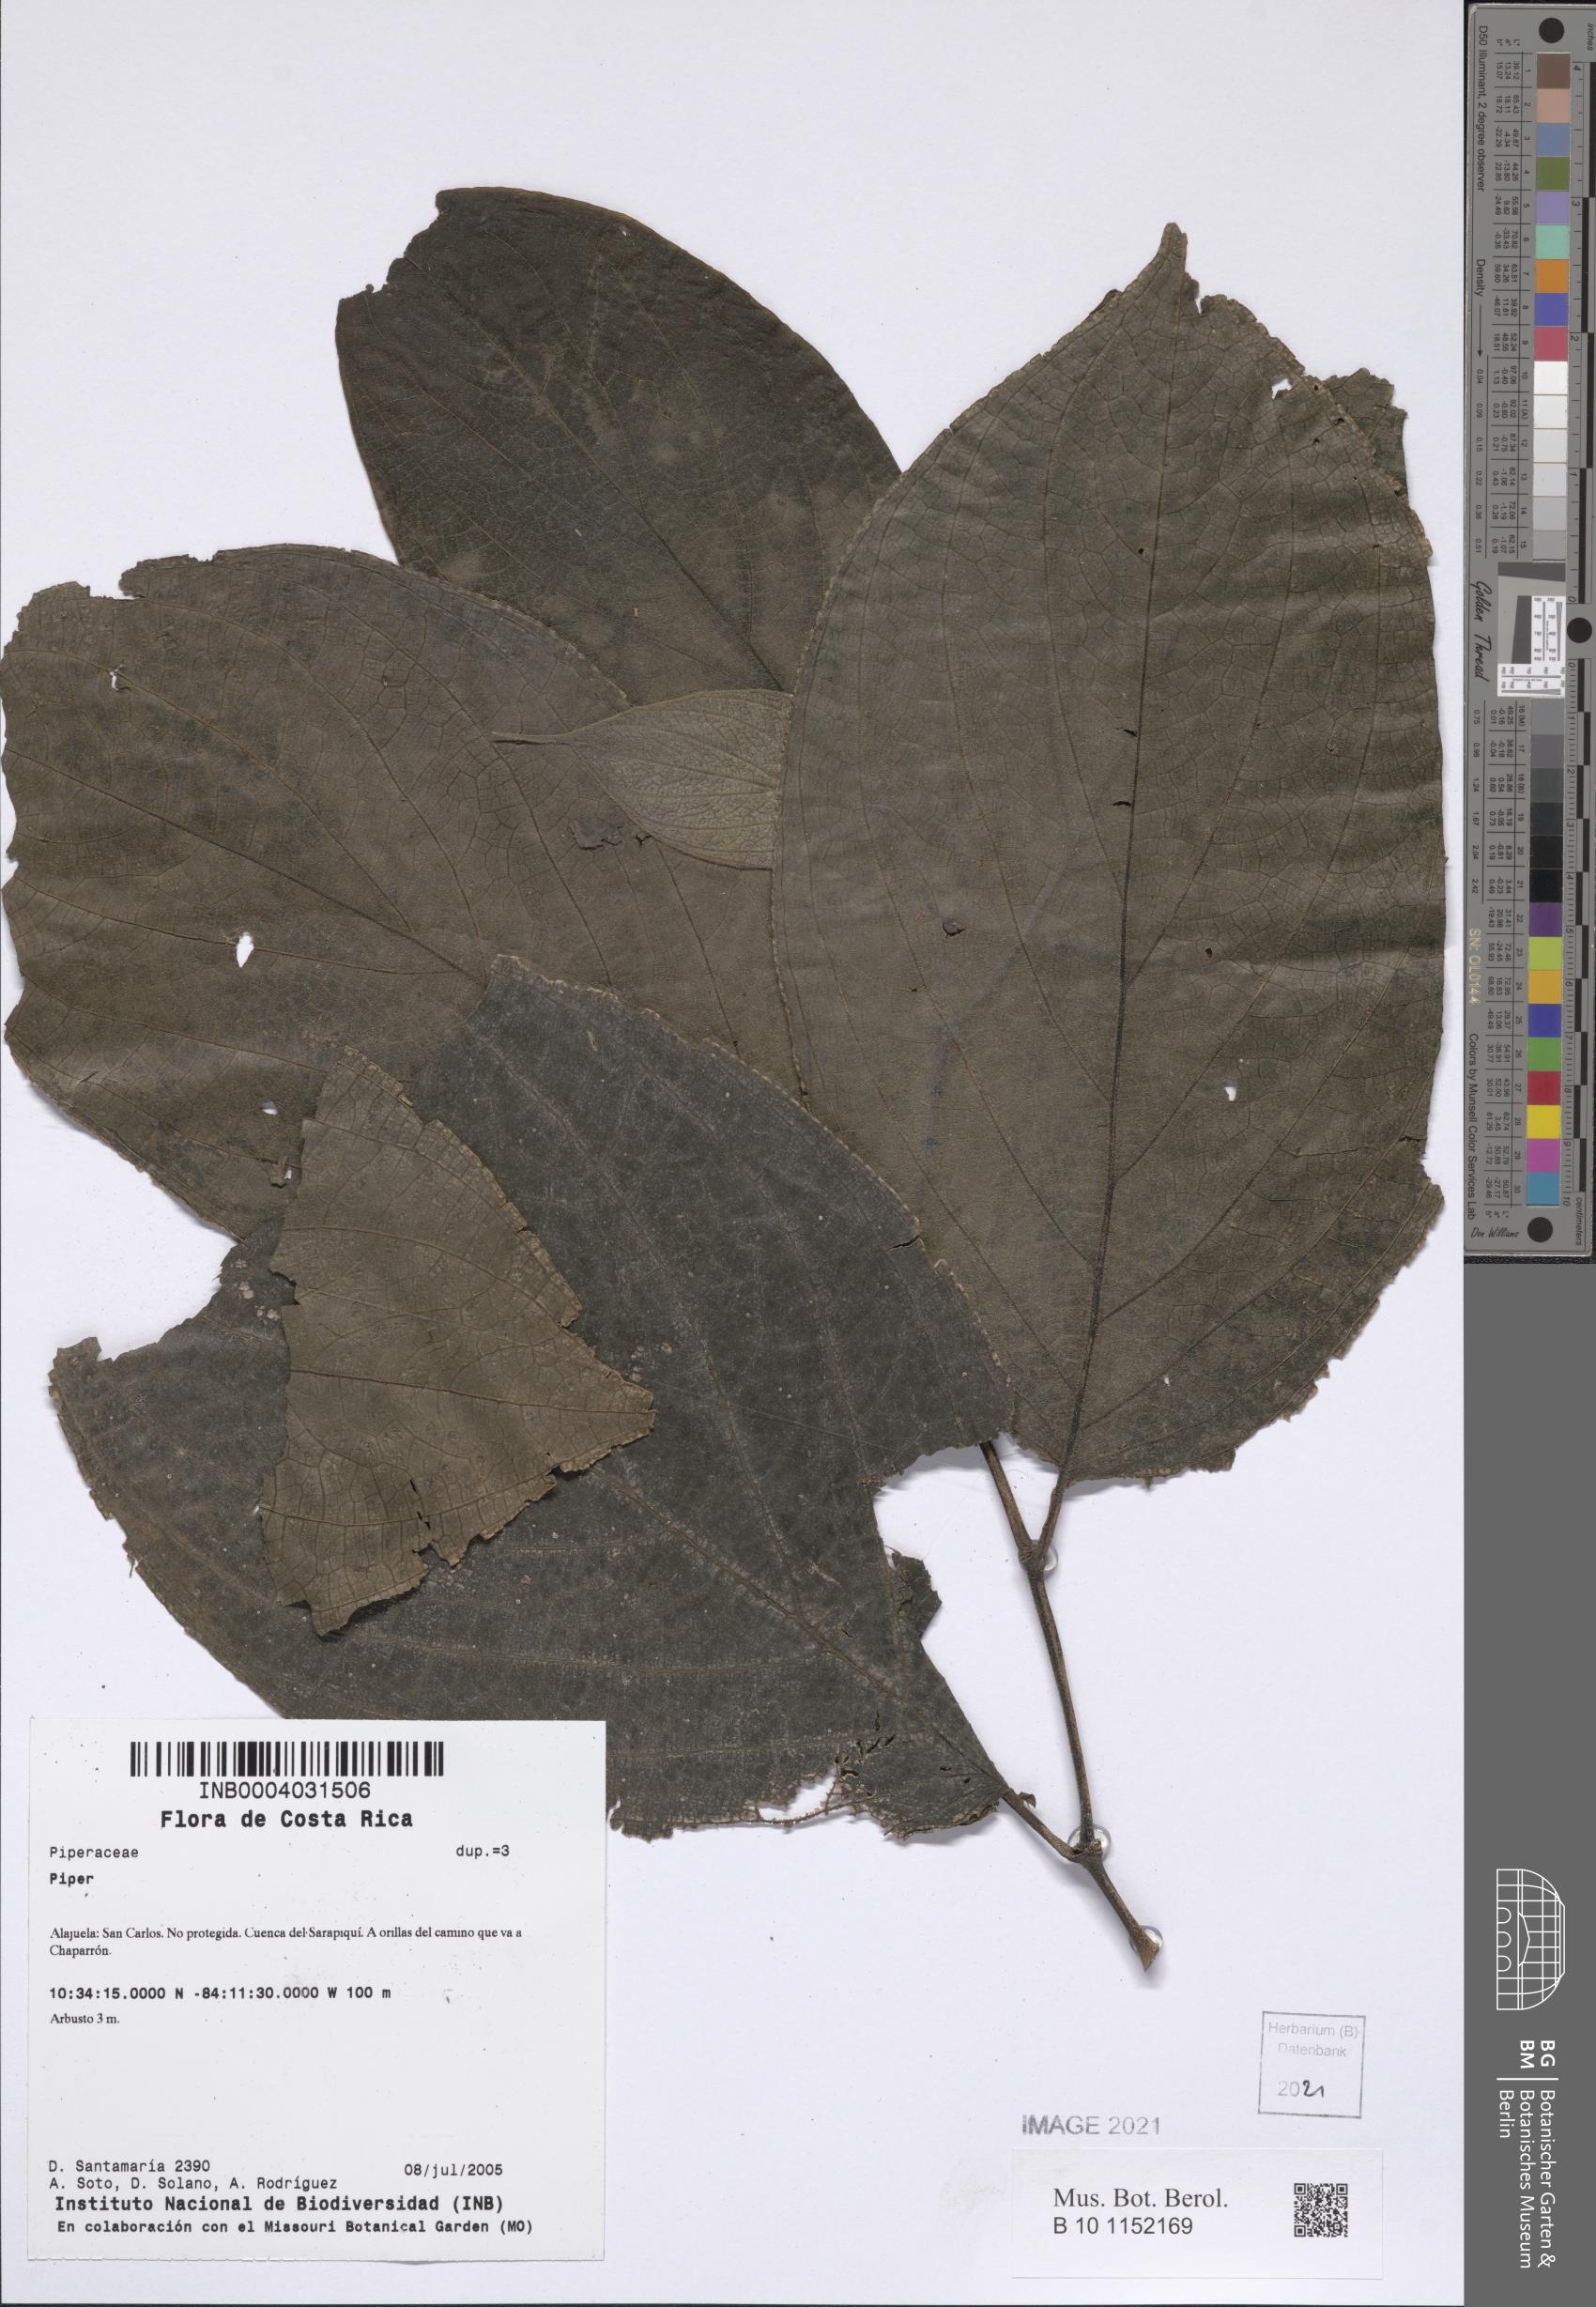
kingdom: Plantae
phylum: Tracheophyta
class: Magnoliopsida
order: Piperales
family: Piperaceae
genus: Piper
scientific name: Piper
